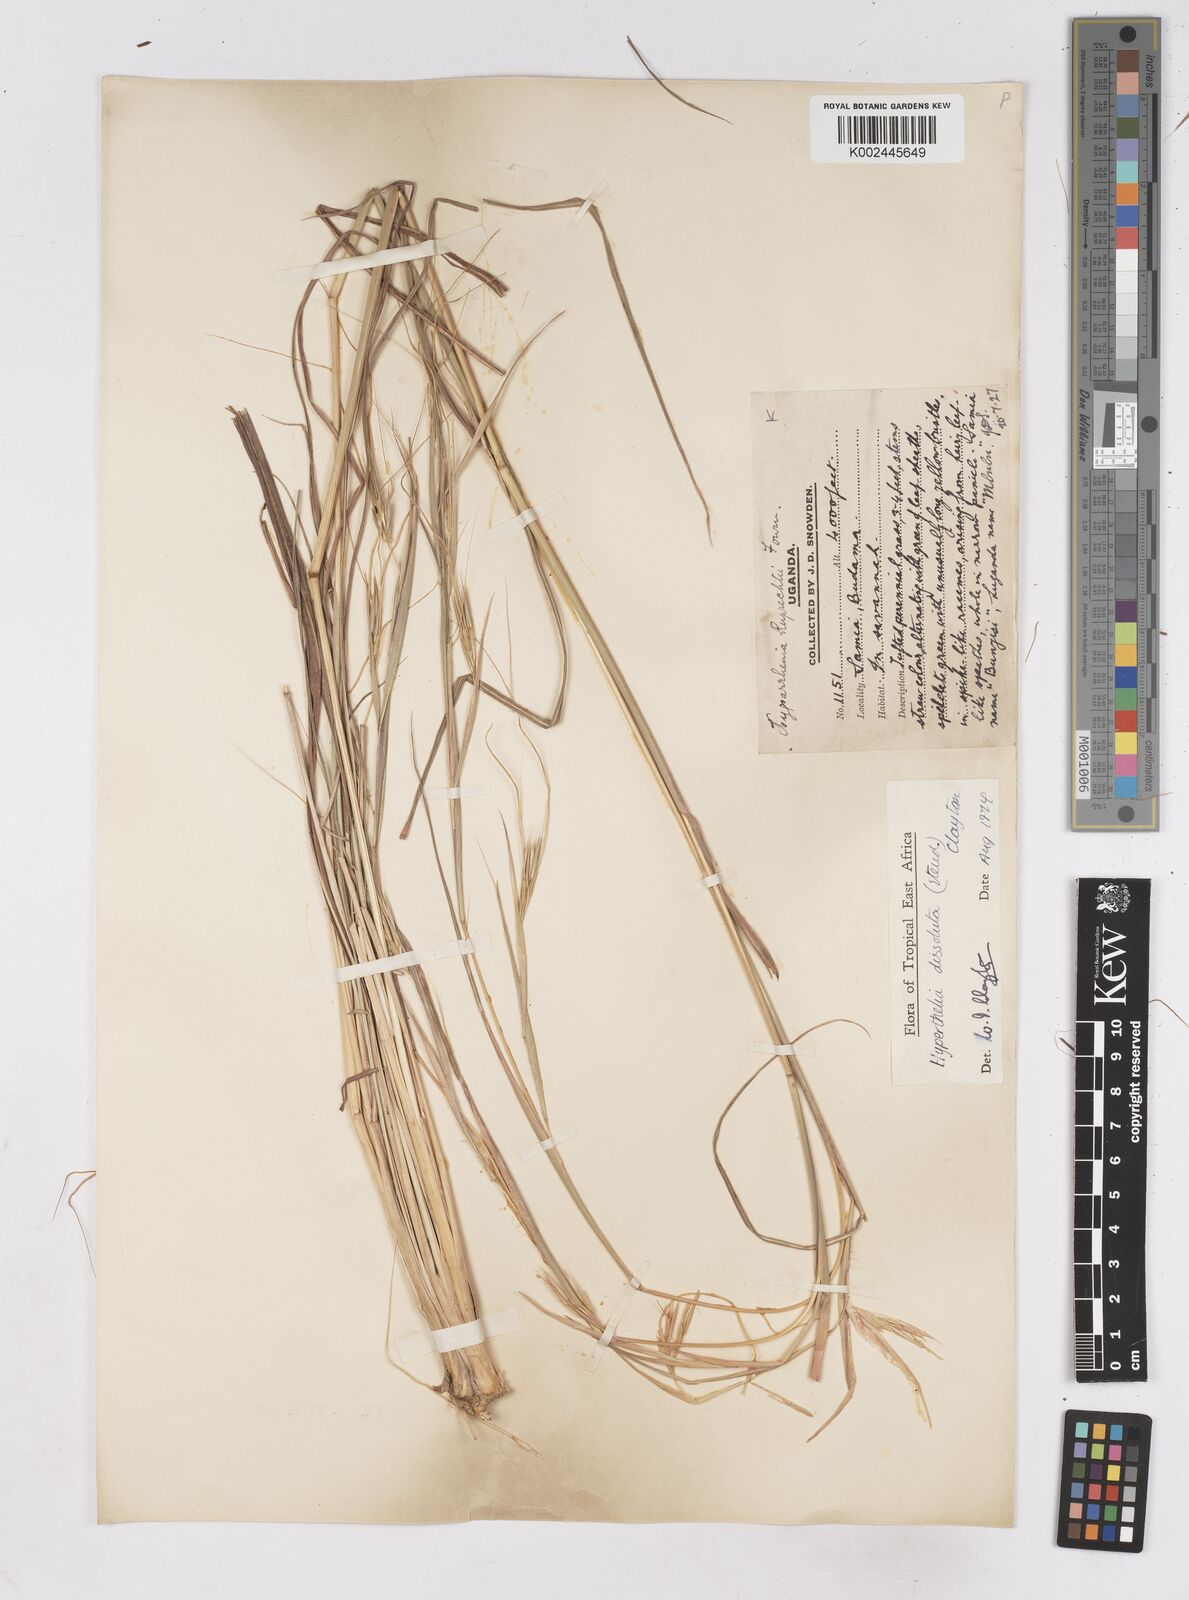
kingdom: Plantae
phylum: Tracheophyta
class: Liliopsida
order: Poales
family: Poaceae
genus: Hyperthelia
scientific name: Hyperthelia dissoluta
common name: Yellow thatching grass
